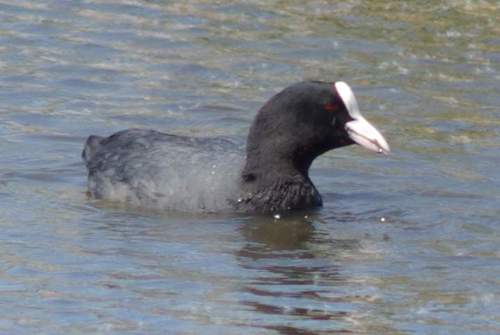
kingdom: Animalia
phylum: Chordata
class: Aves
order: Gruiformes
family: Rallidae
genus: Fulica
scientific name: Fulica atra
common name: Eurasian coot
